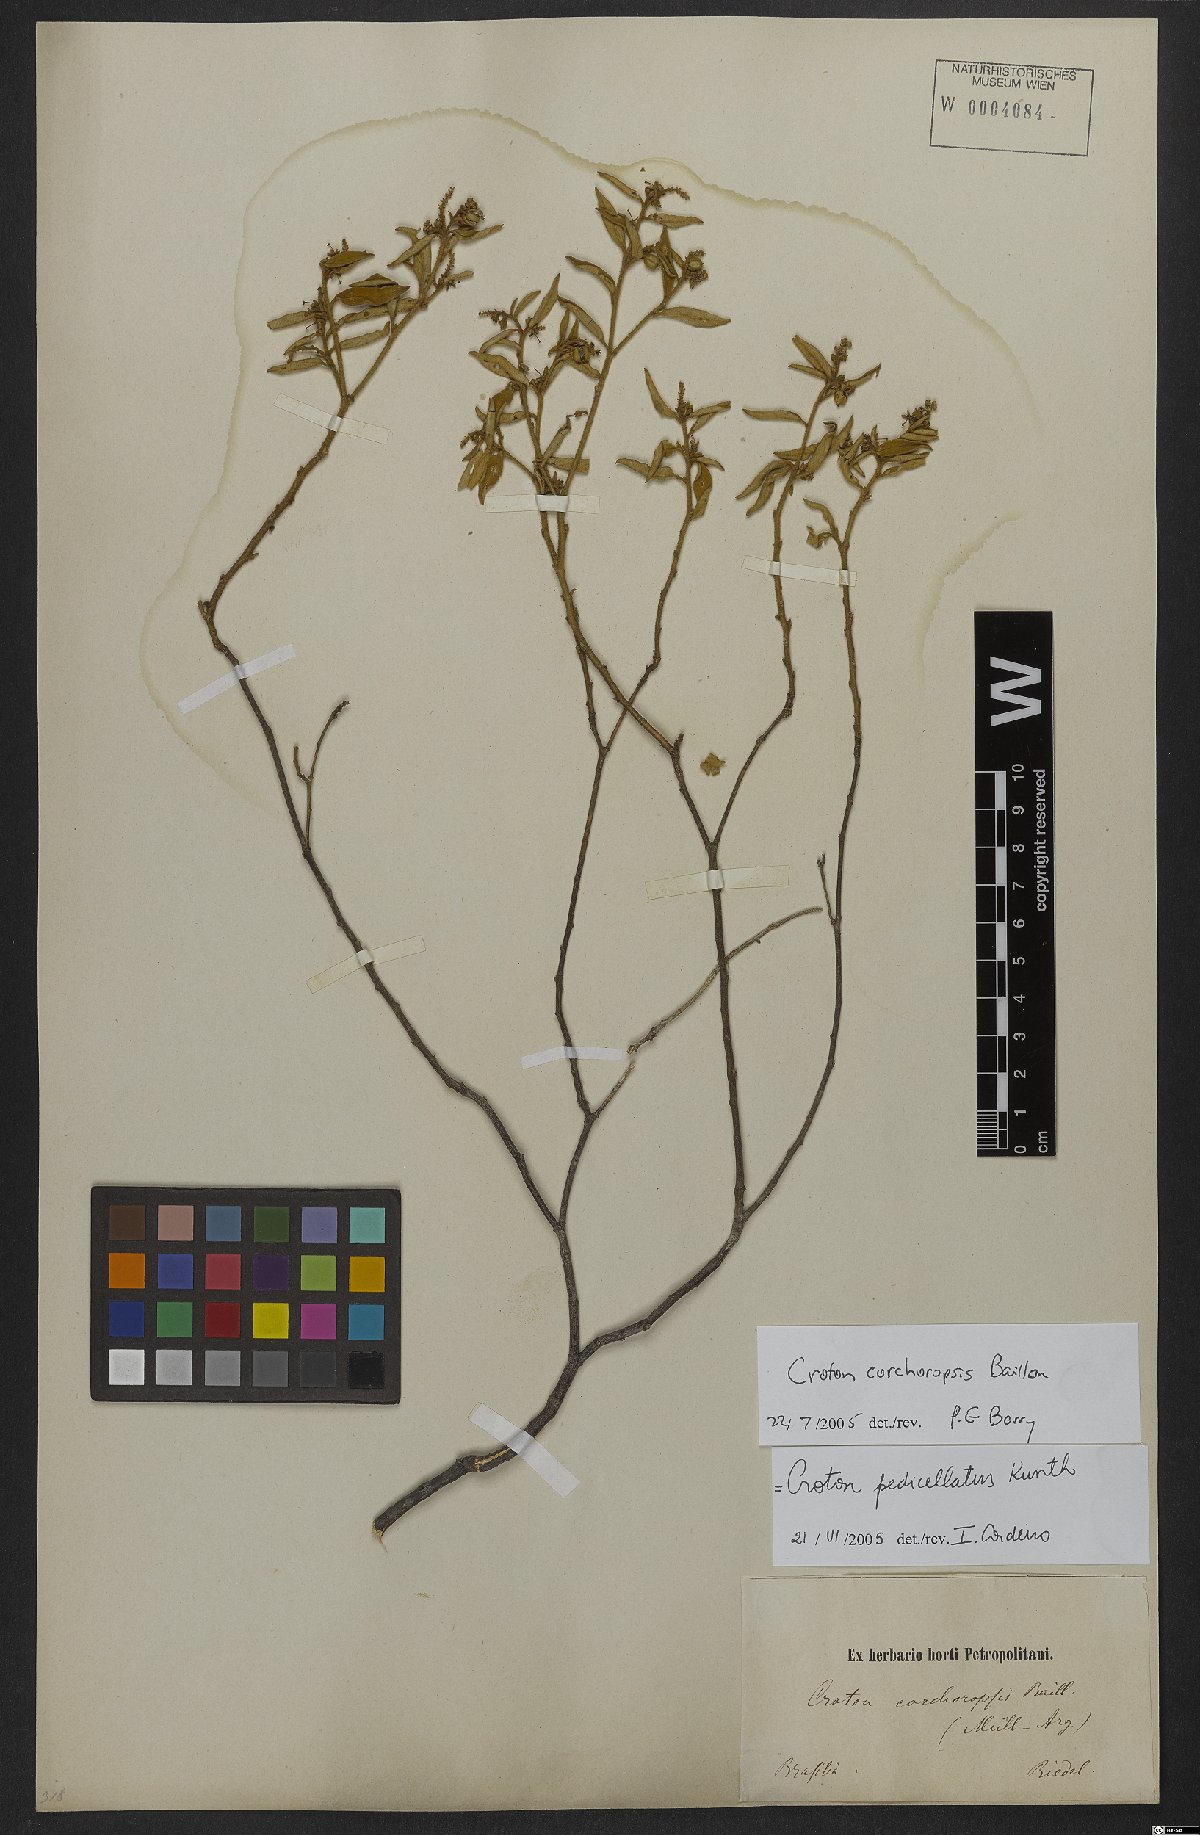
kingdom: Plantae
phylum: Tracheophyta
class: Magnoliopsida
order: Malpighiales
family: Euphorbiaceae
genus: Croton
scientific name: Croton corchoropsis
